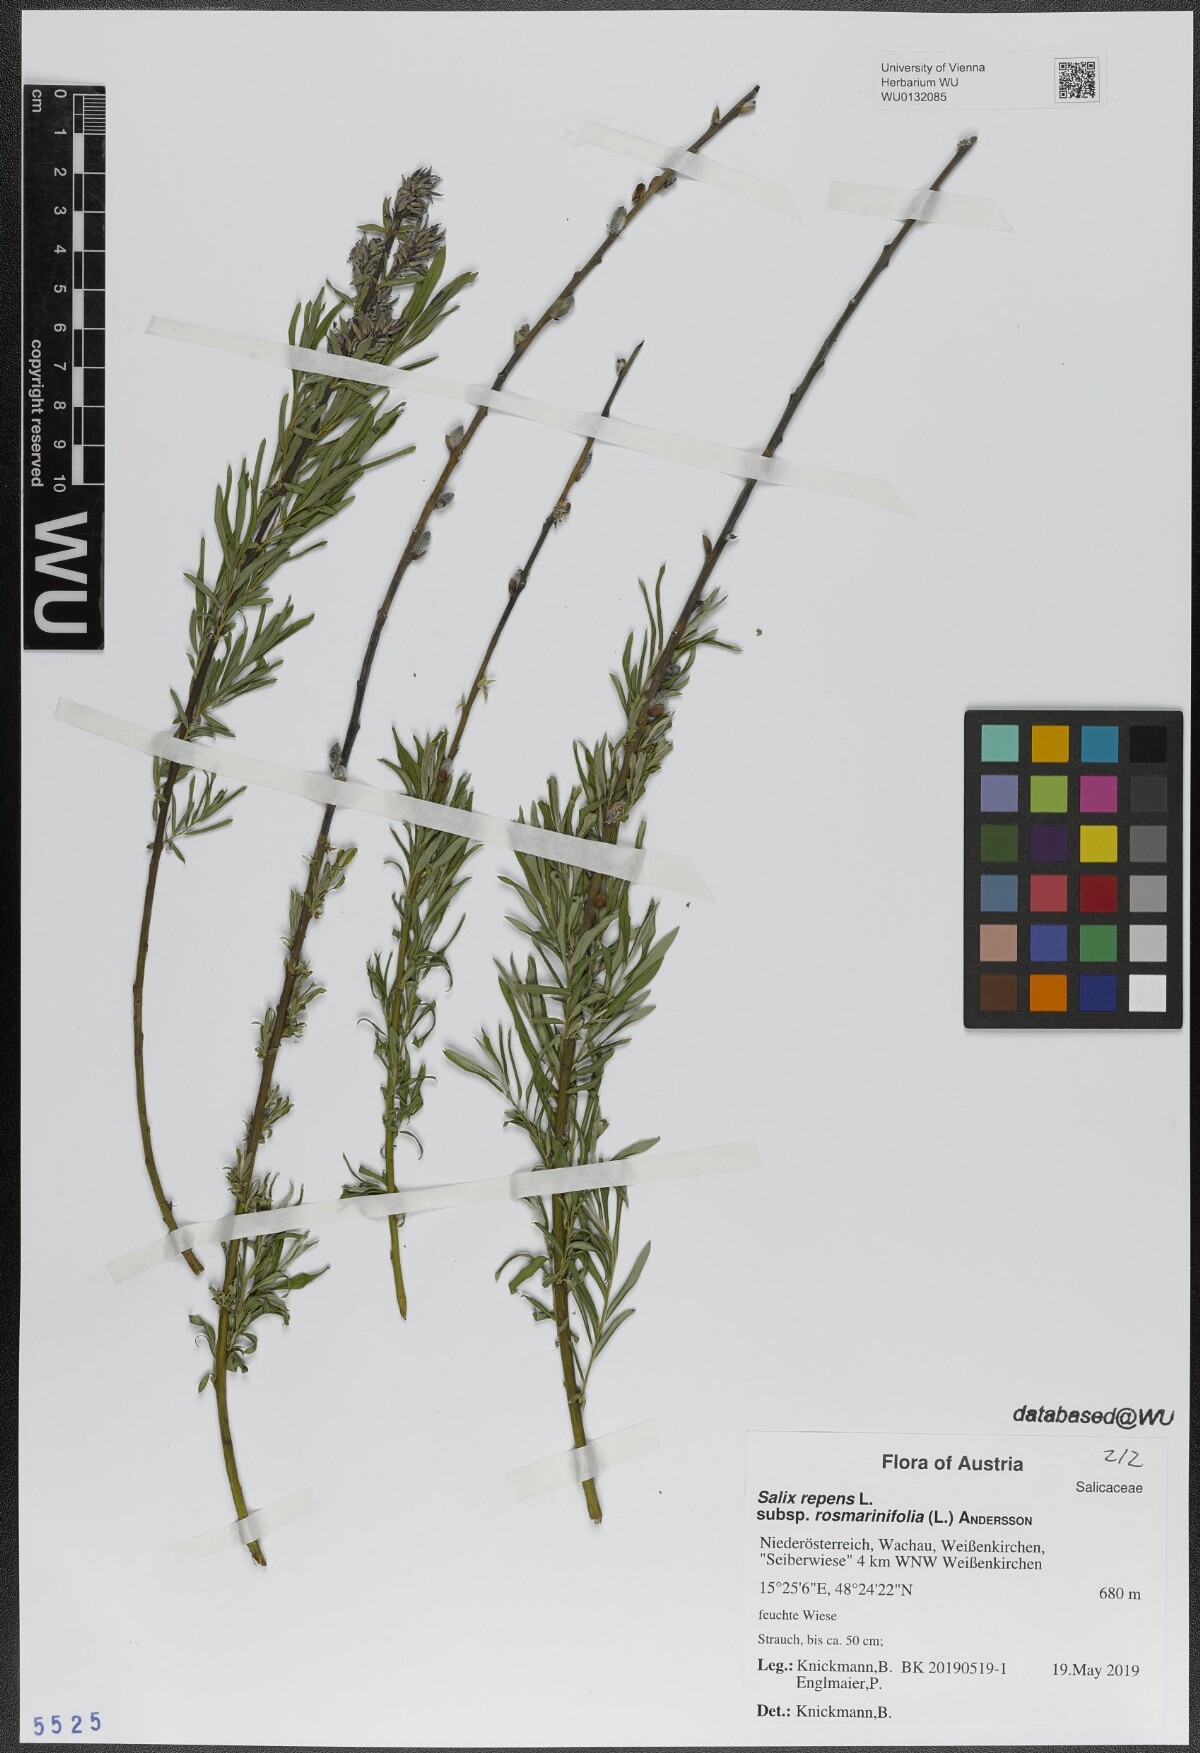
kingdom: Plantae
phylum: Tracheophyta
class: Magnoliopsida
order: Malpighiales
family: Salicaceae
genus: Salix
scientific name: Salix repens
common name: Creeping willow
